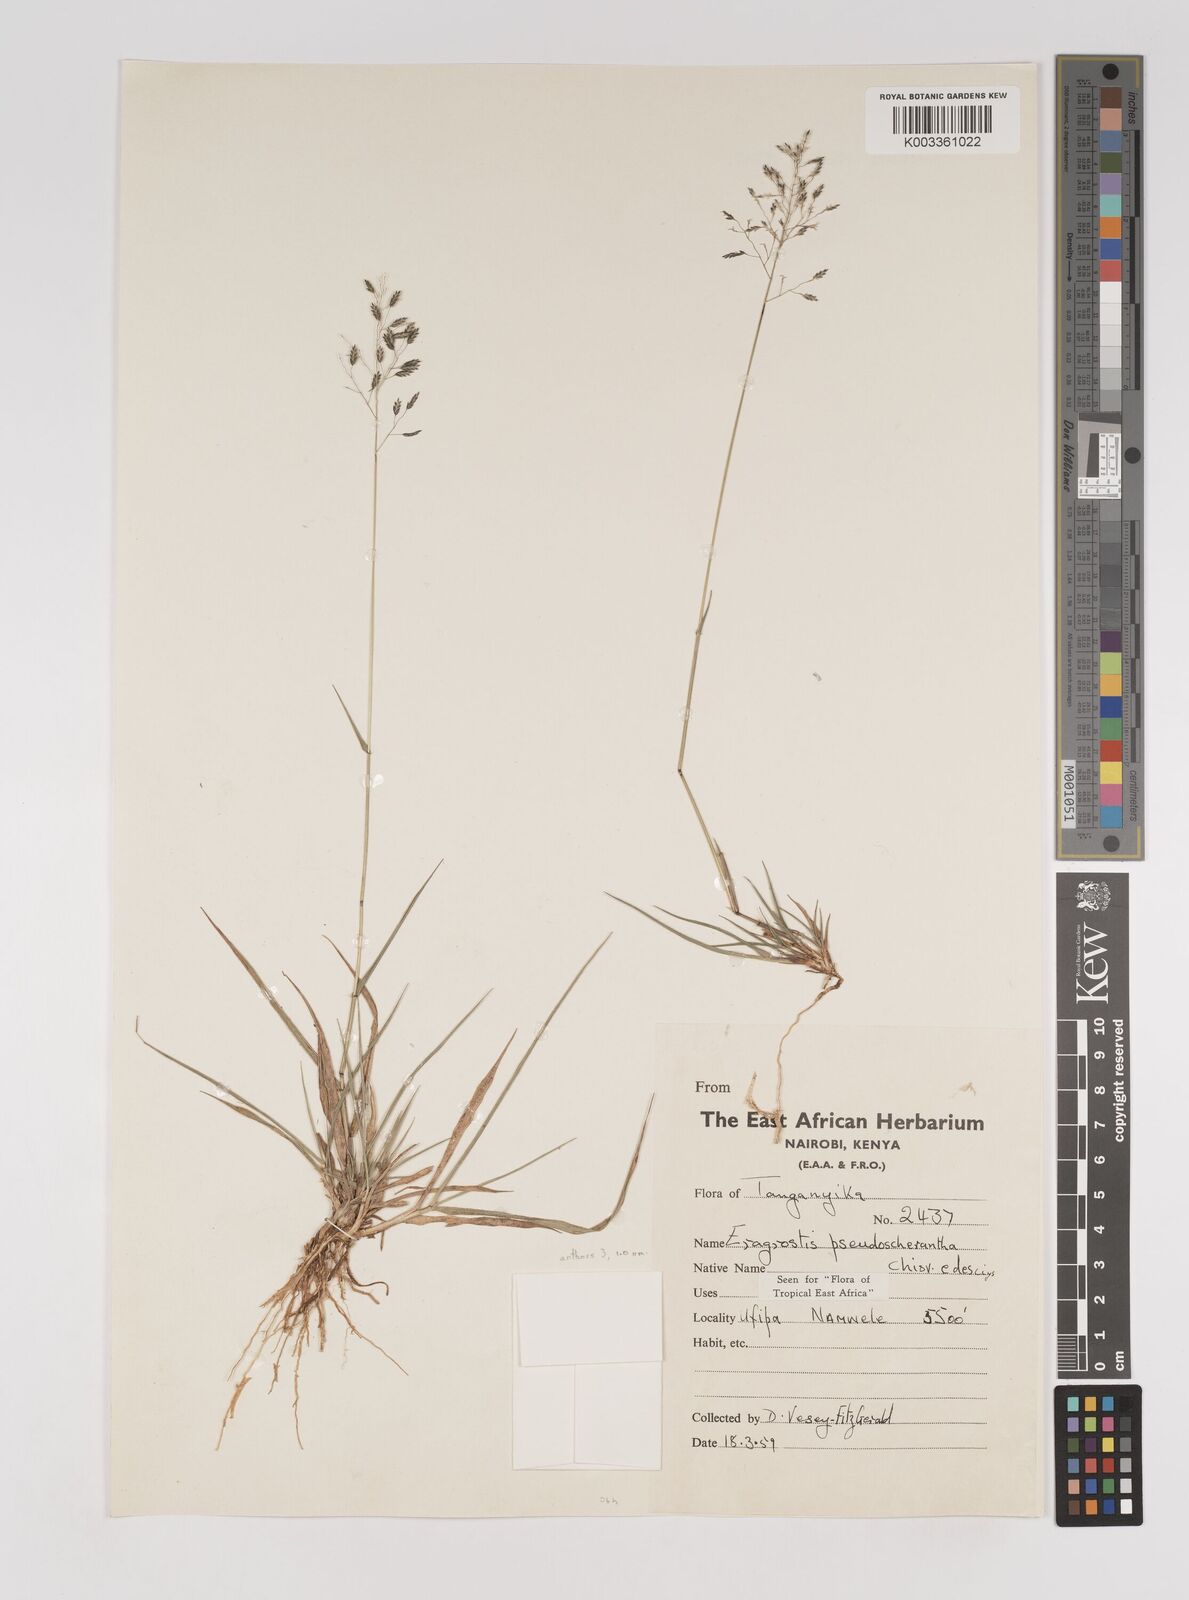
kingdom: Plantae
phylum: Tracheophyta
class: Liliopsida
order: Poales
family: Poaceae
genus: Eragrostis
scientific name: Eragrostis patentipilosa
